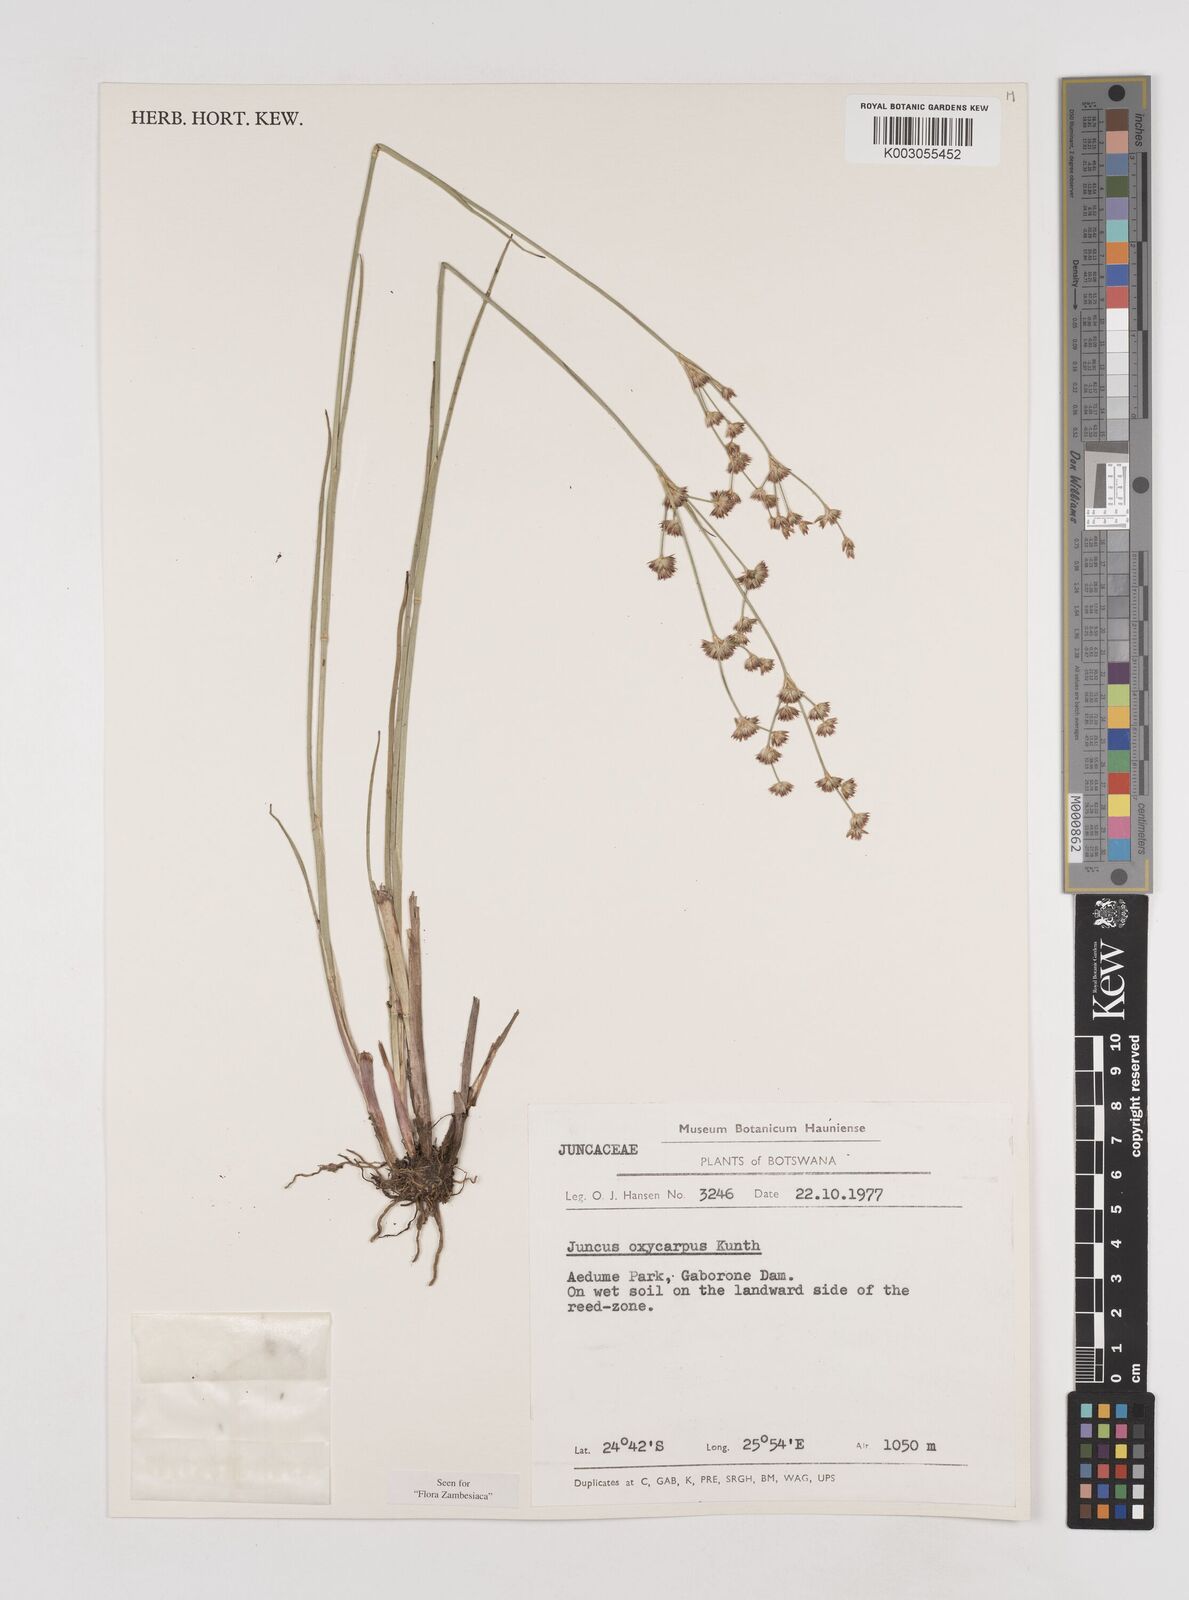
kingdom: Plantae
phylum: Tracheophyta
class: Liliopsida
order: Poales
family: Juncaceae
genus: Juncus
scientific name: Juncus oxycarpus
